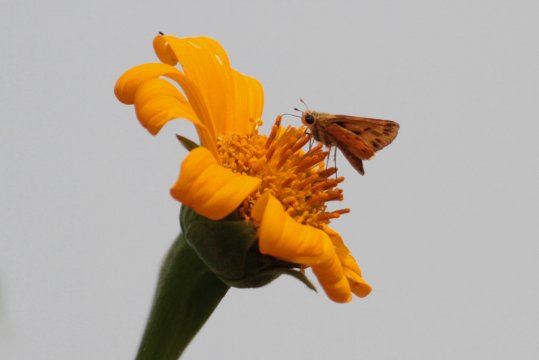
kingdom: Animalia
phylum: Arthropoda
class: Insecta
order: Lepidoptera
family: Hesperiidae
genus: Hylephila
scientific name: Hylephila phyleus
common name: Fiery Skipper
